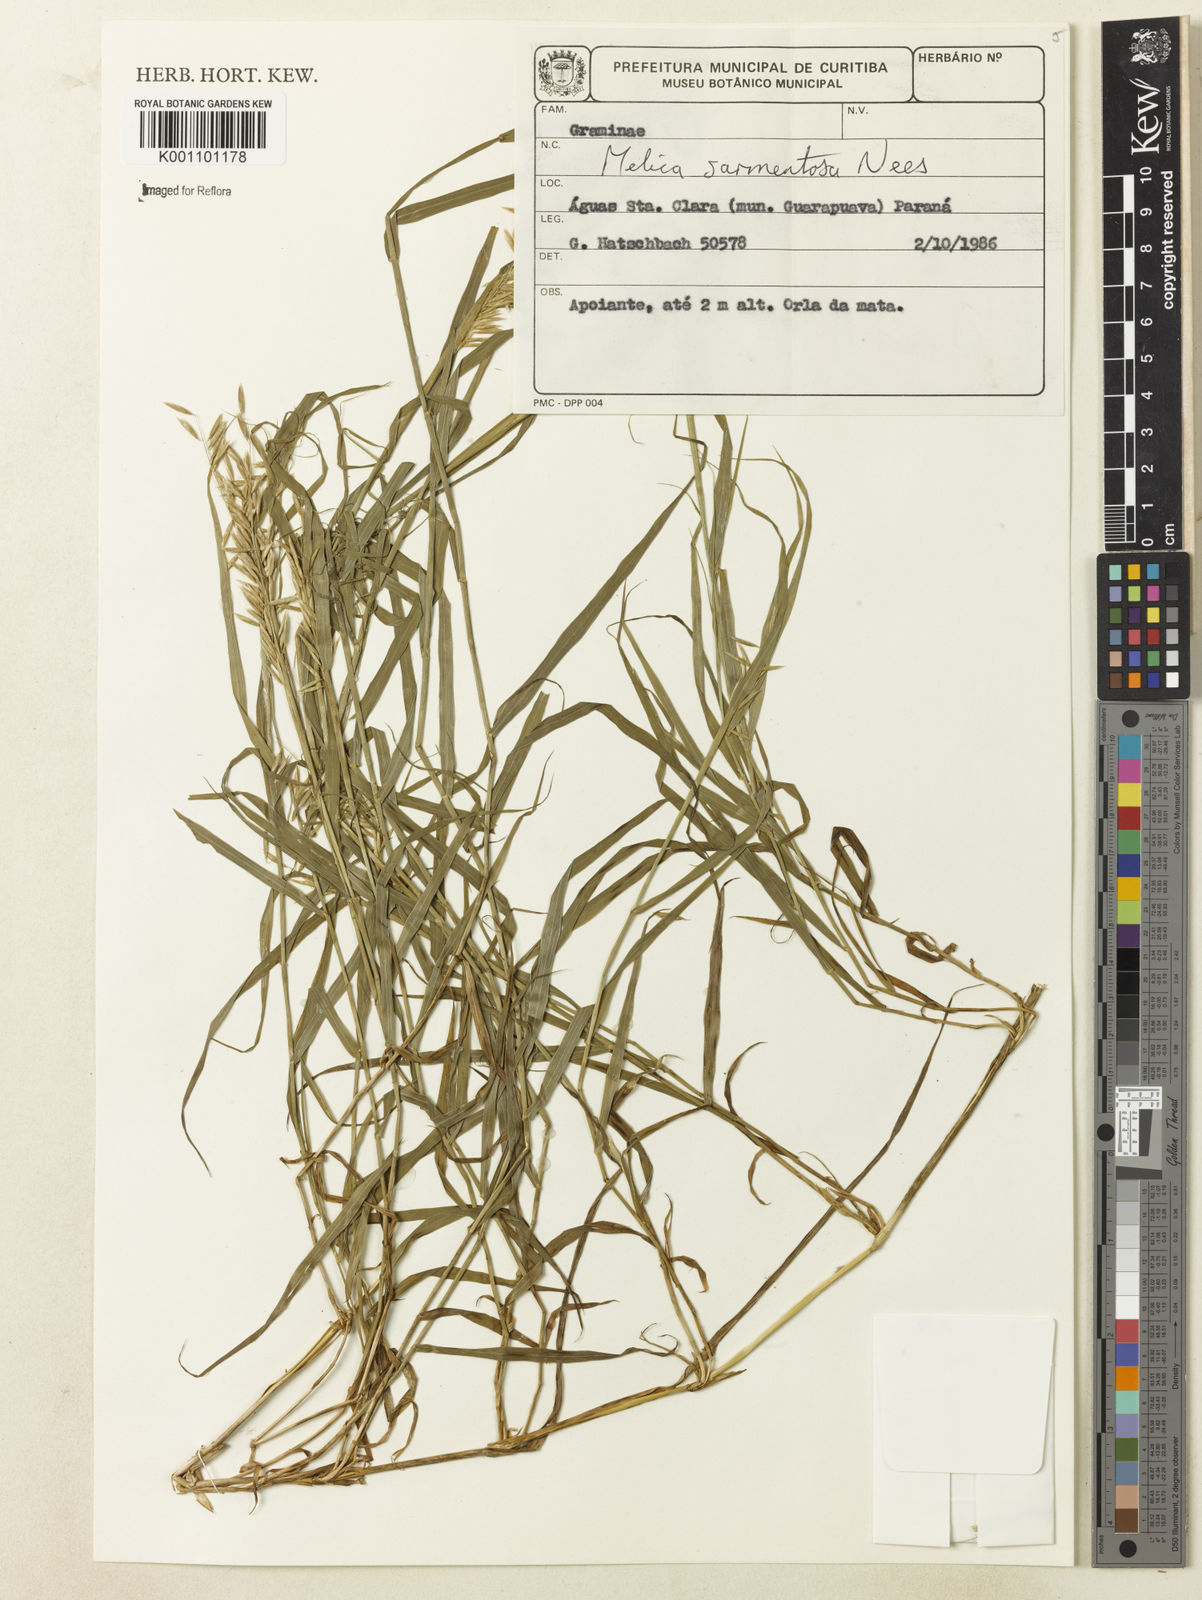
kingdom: Plantae
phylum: Tracheophyta
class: Liliopsida
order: Poales
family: Poaceae
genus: Melica
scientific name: Melica sarmentosa
